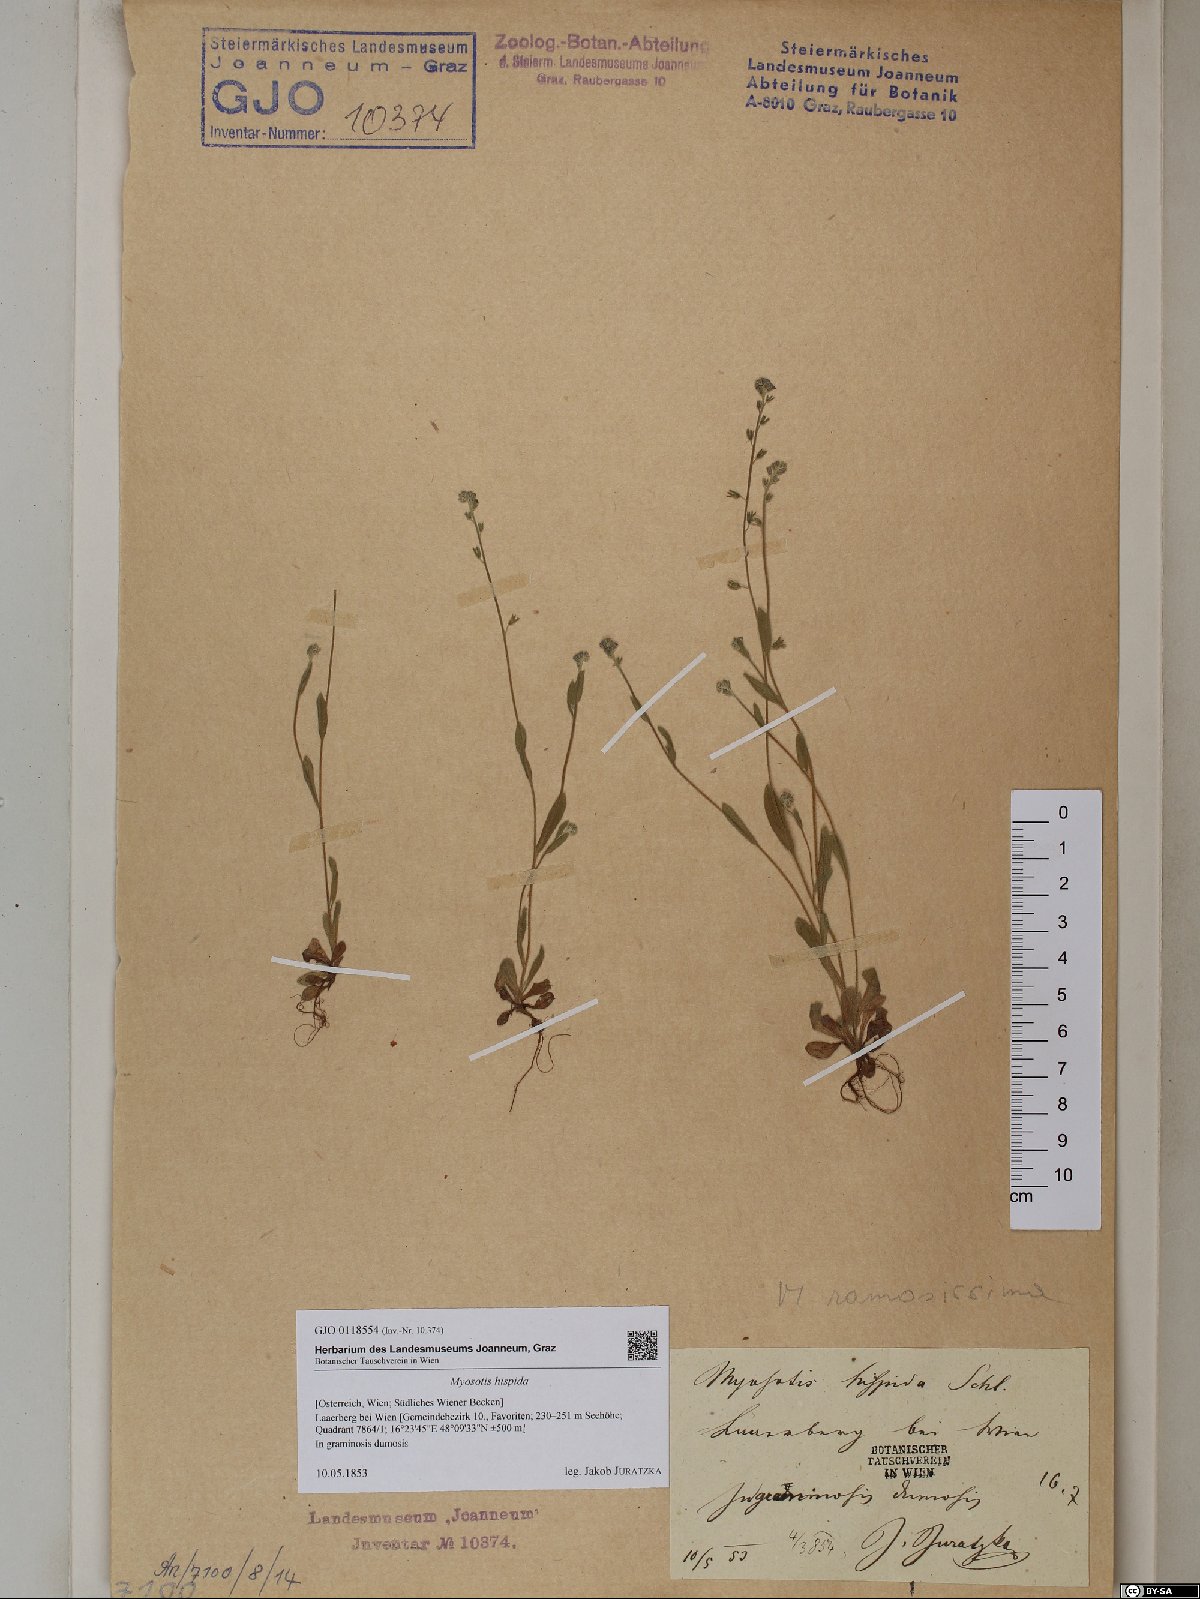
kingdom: Plantae
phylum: Tracheophyta
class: Magnoliopsida
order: Boraginales
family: Boraginaceae
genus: Myosotis
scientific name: Myosotis ramosissima
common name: Early forget-me-not
